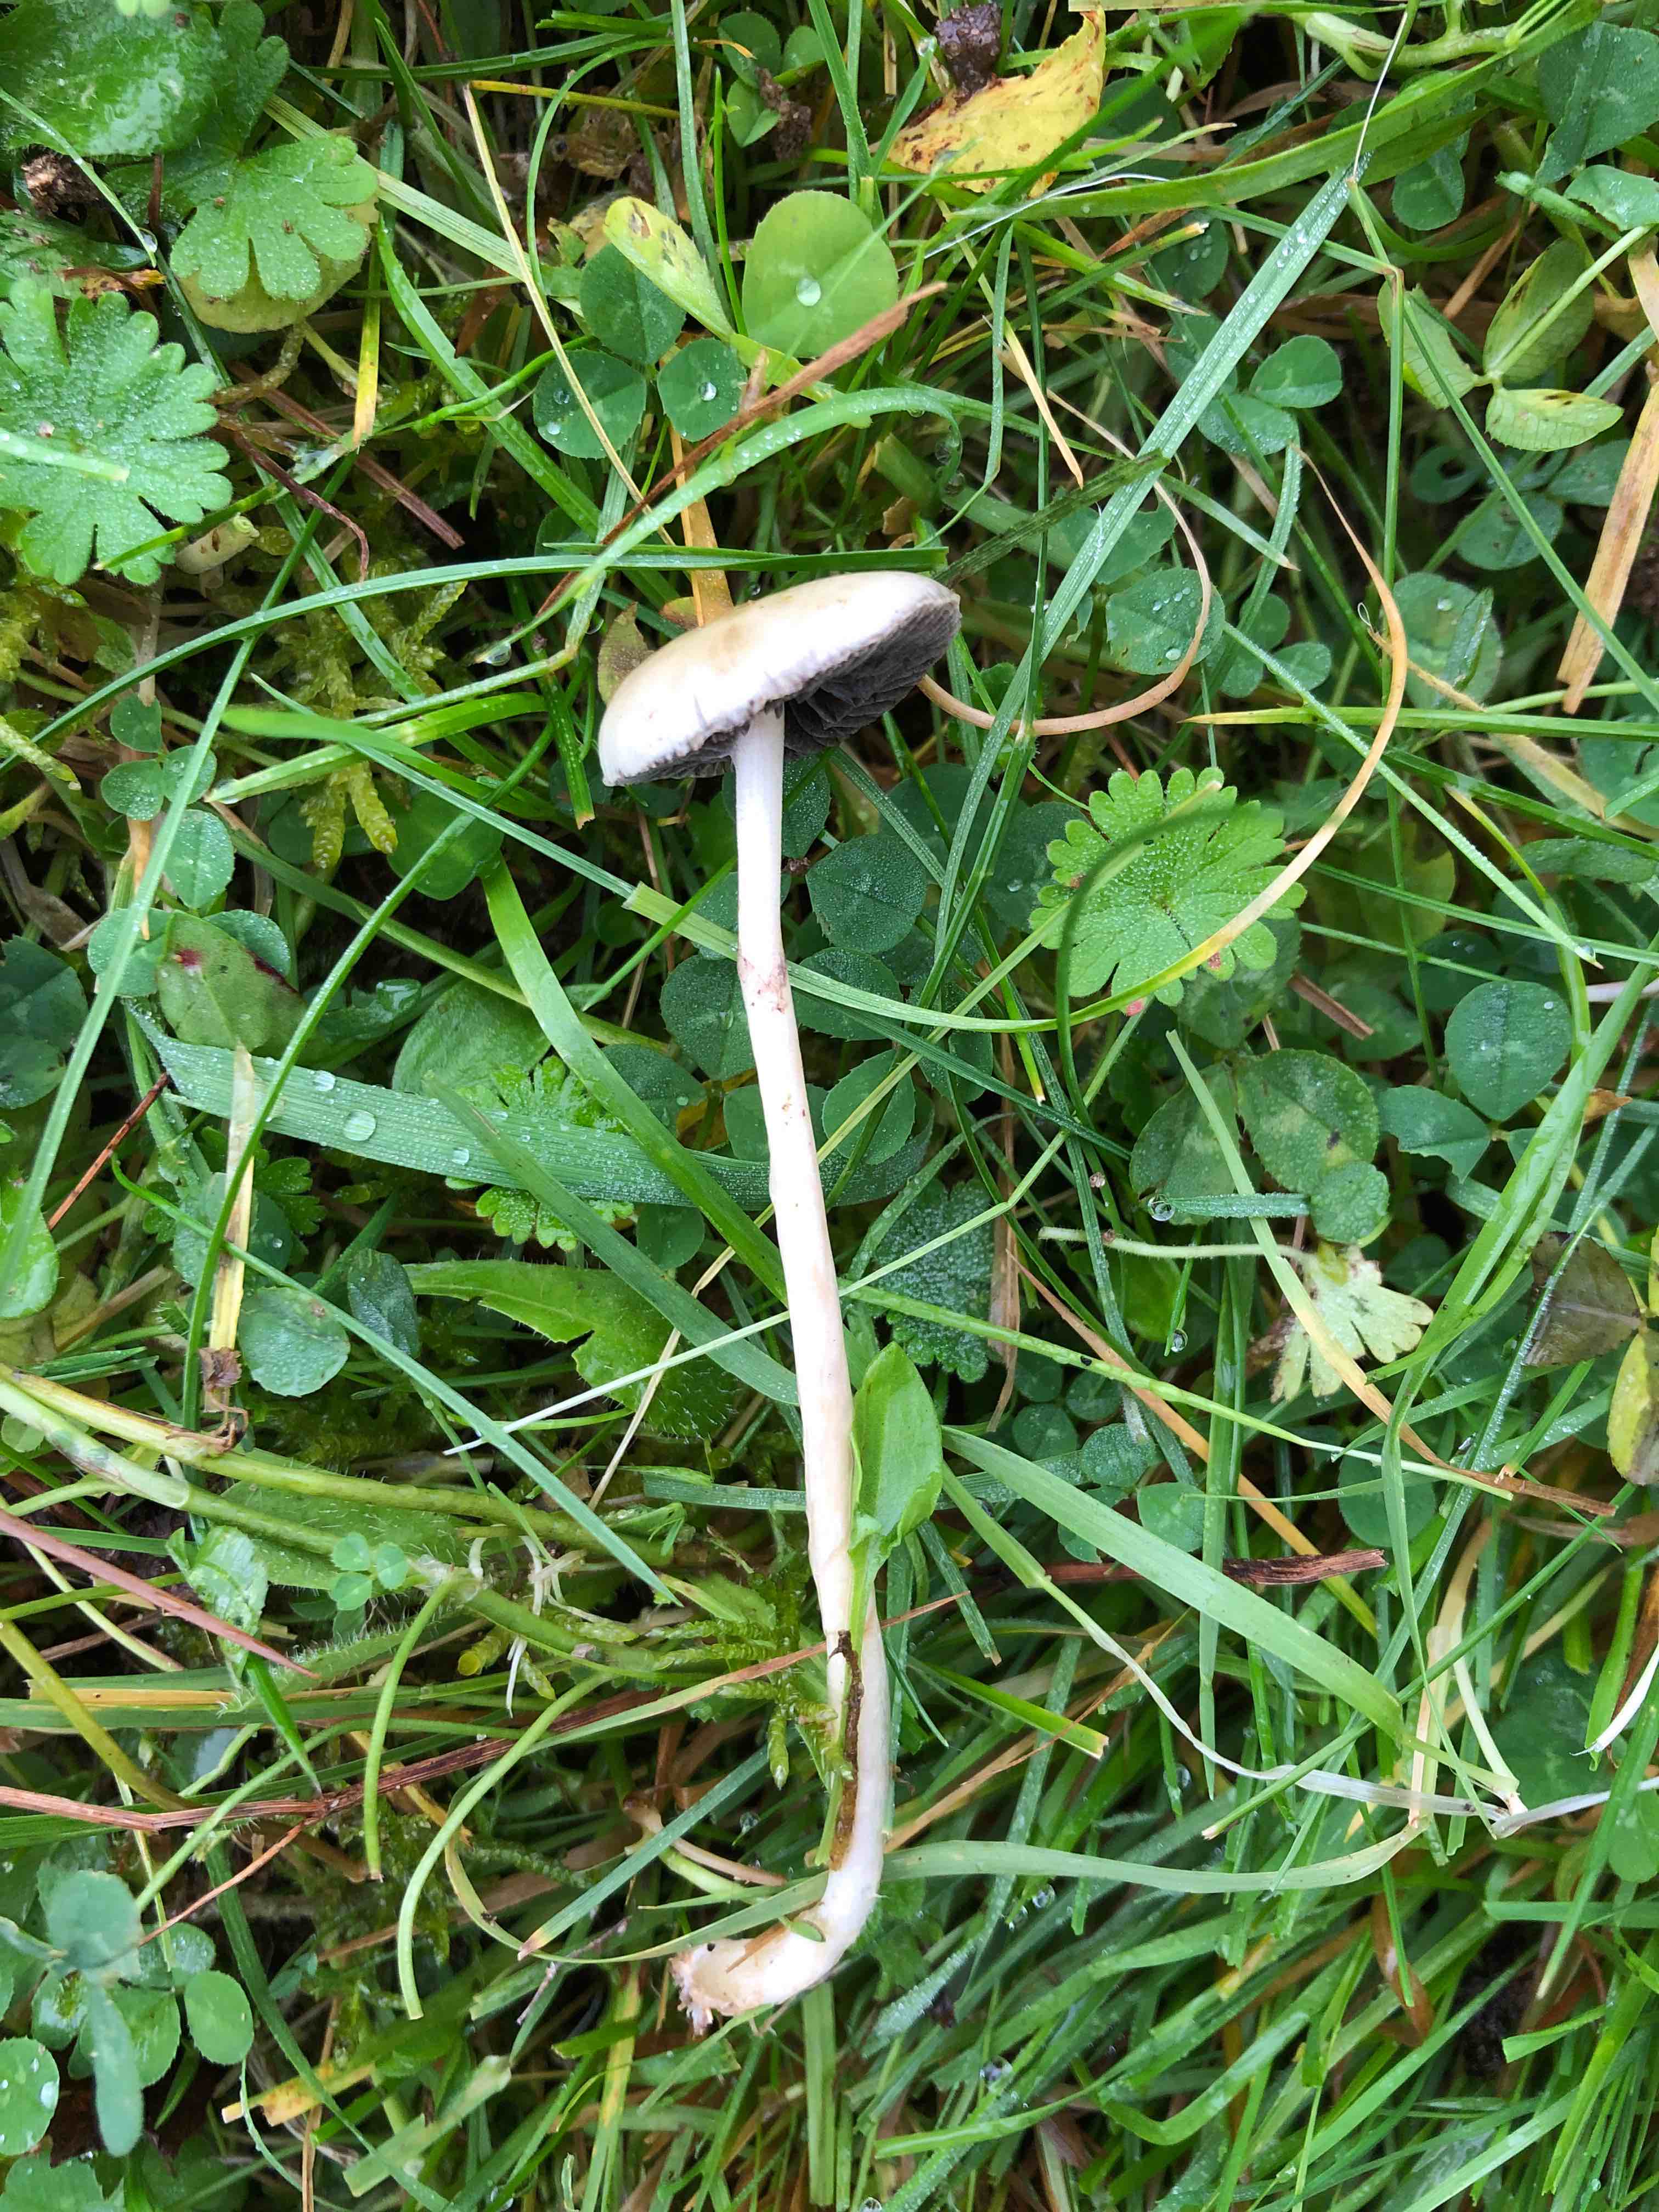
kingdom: Fungi
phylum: Basidiomycota
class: Agaricomycetes
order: Agaricales
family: Strophariaceae
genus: Protostropharia
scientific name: Protostropharia semiglobata
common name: halvkugleformet bredblad
